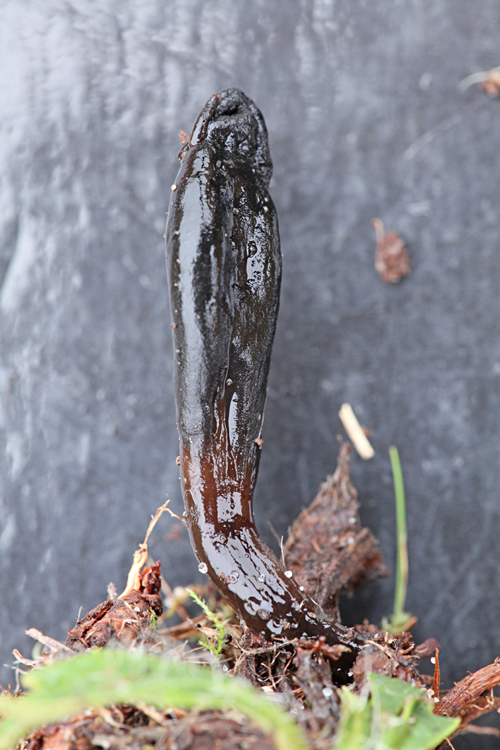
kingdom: Fungi
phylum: Ascomycota
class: Geoglossomycetes
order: Geoglossales
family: Geoglossaceae
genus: Glutinoglossum
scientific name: Glutinoglossum glutinosum
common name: slimet jordtunge
